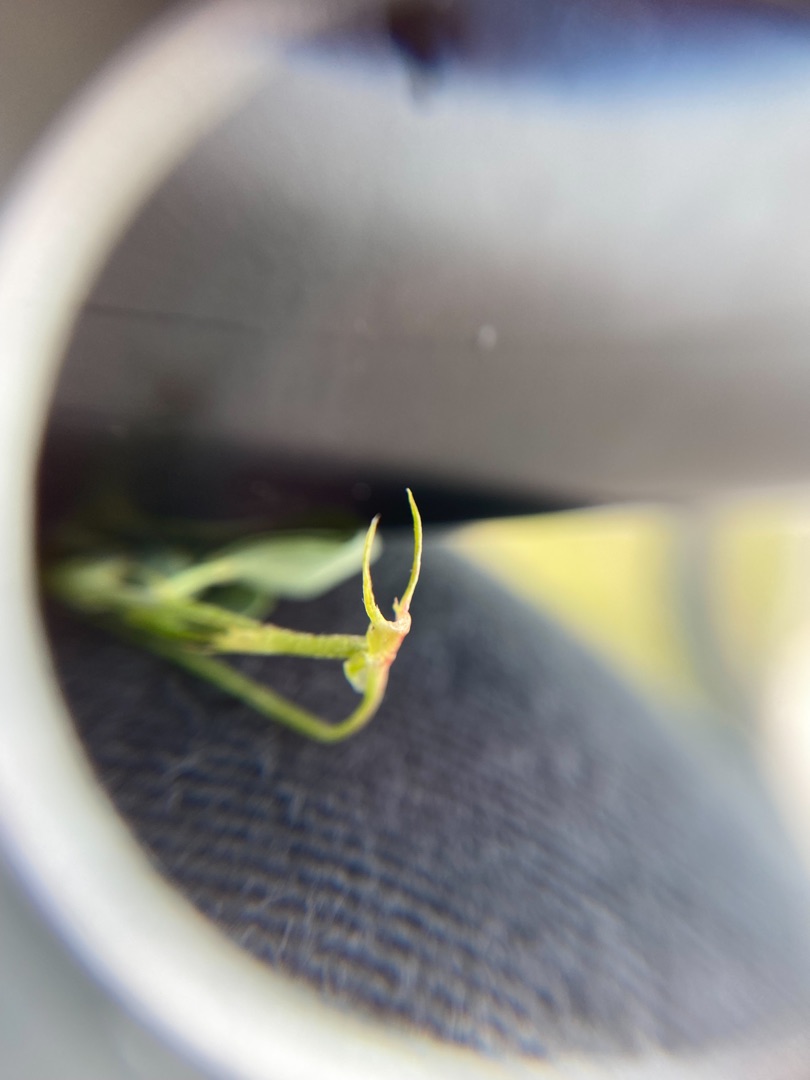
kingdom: Plantae
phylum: Tracheophyta
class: Magnoliopsida
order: Fabales
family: Fabaceae
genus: Melilotus
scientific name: Melilotus altissimus
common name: Høj stenkløver
